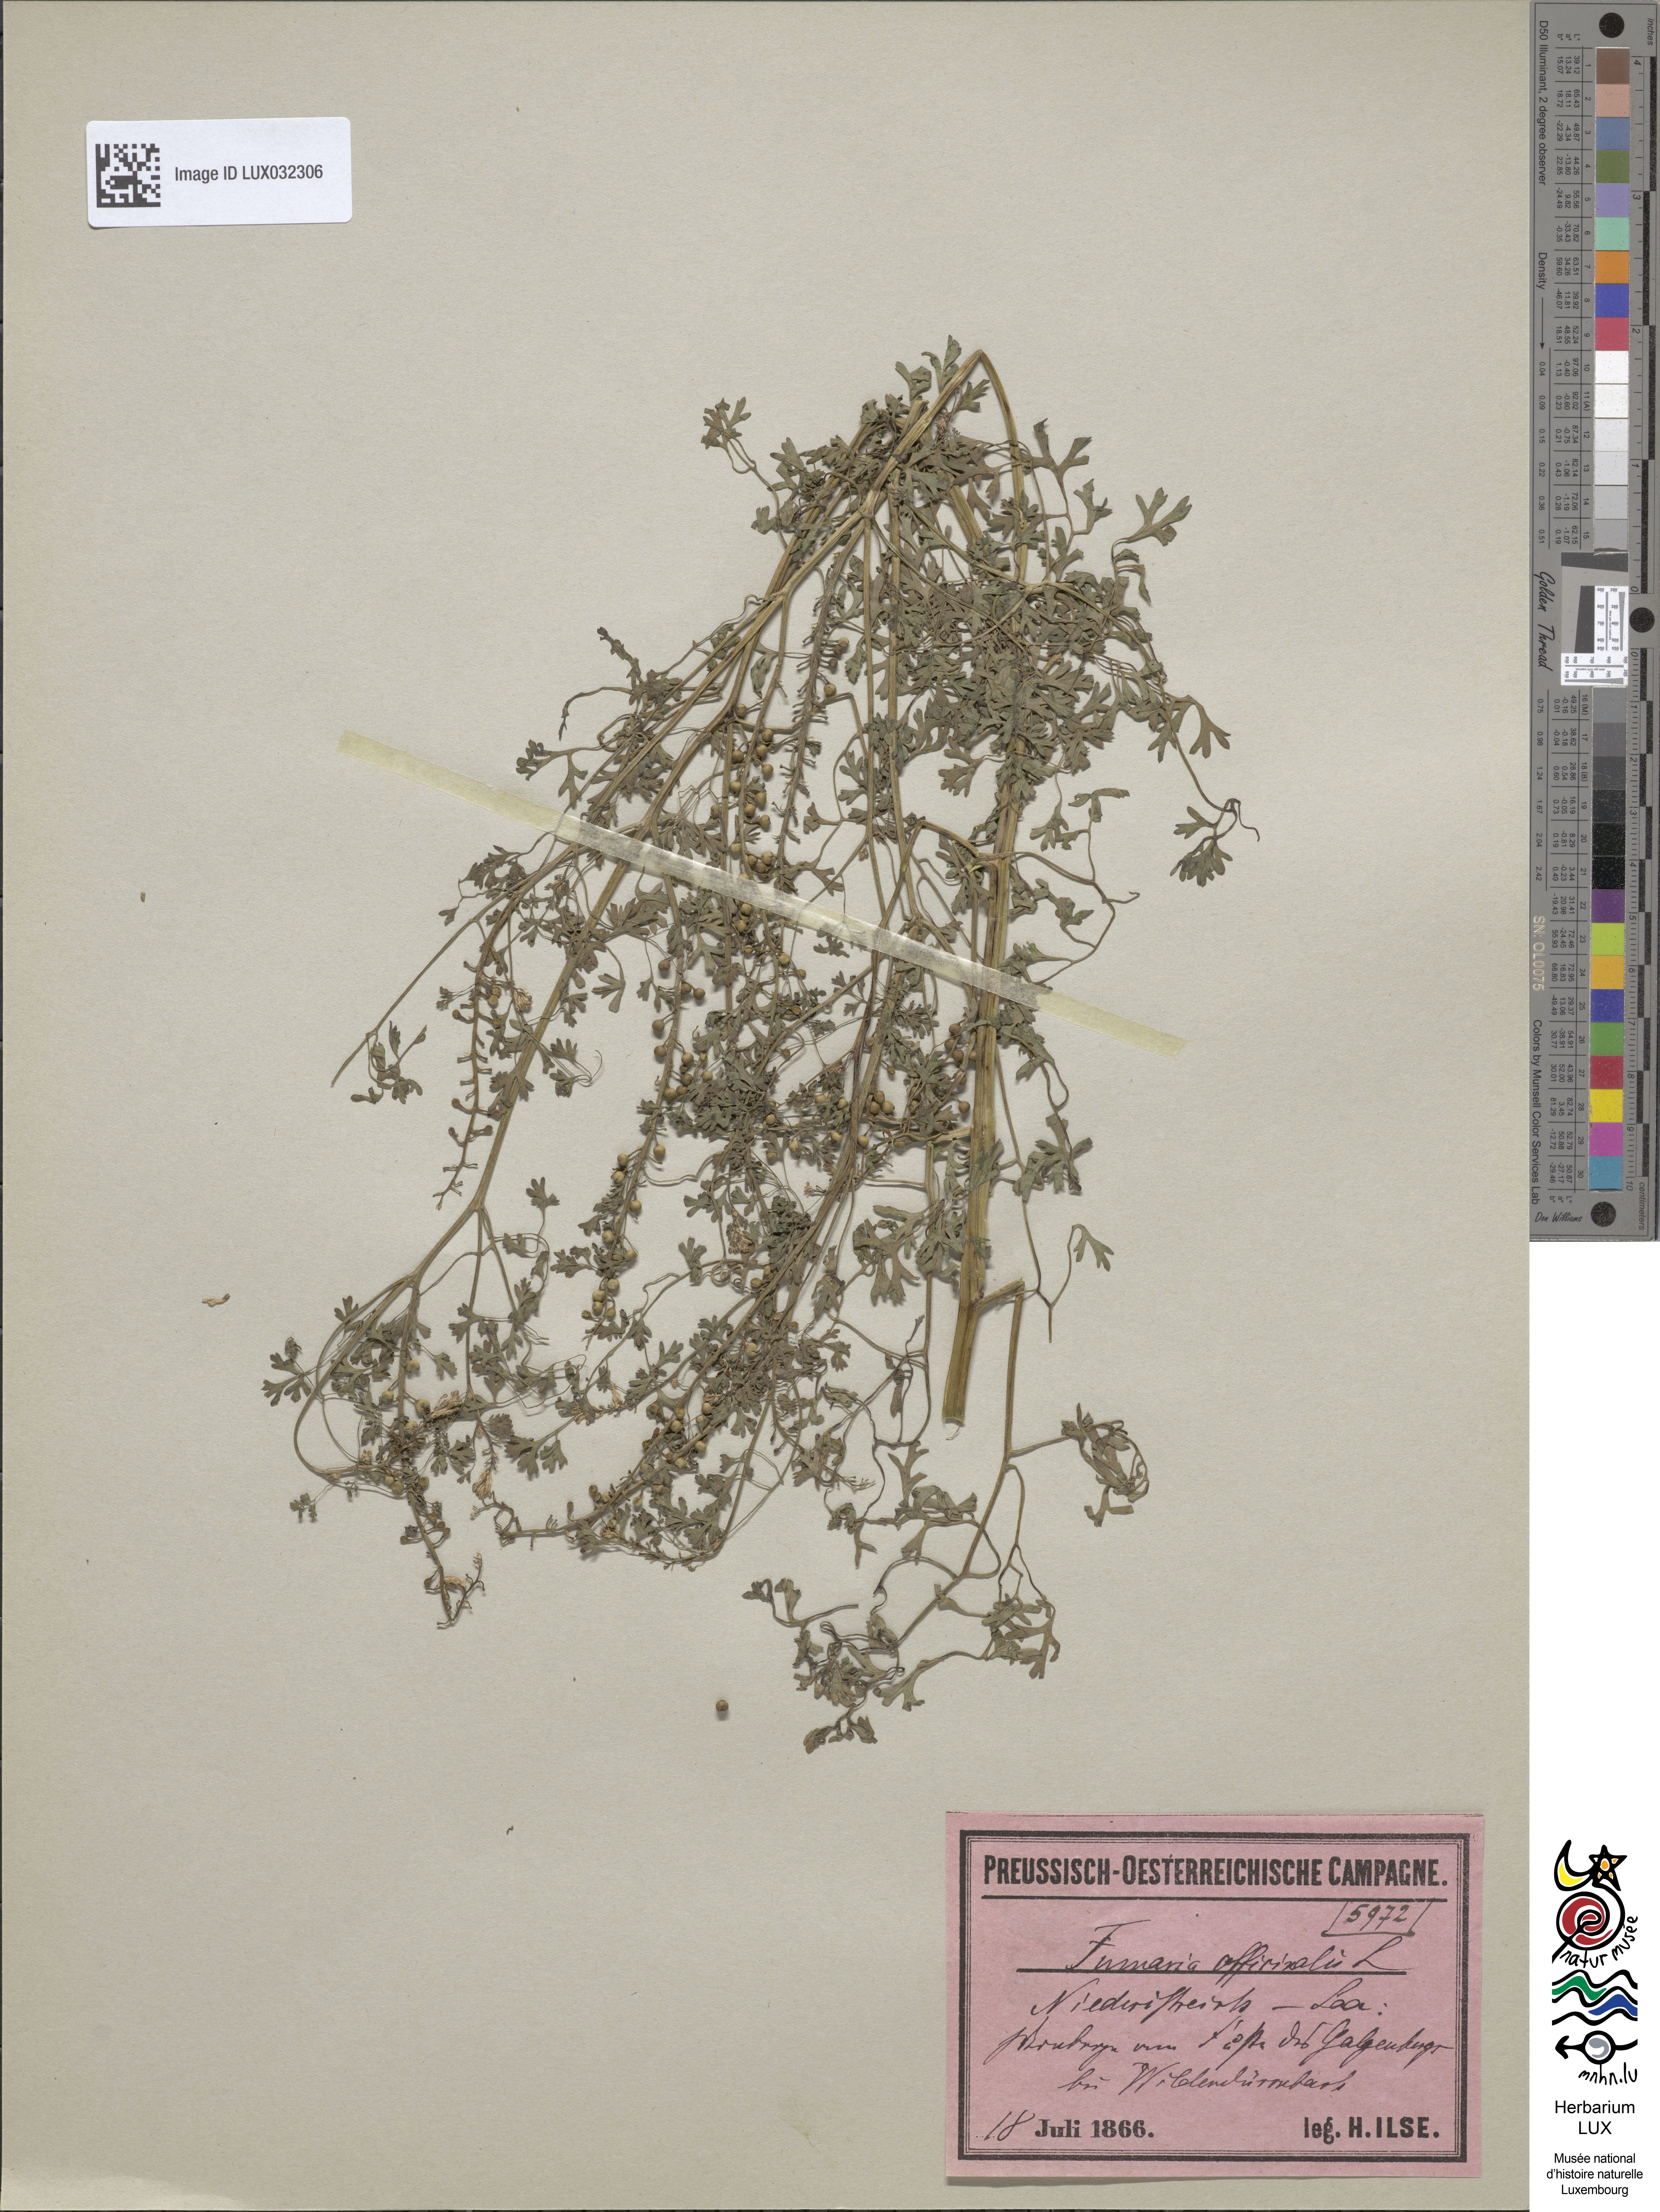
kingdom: Plantae
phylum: Tracheophyta
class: Magnoliopsida
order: Ranunculales
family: Papaveraceae
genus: Fumaria
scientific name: Fumaria officinalis
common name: Common fumitory
